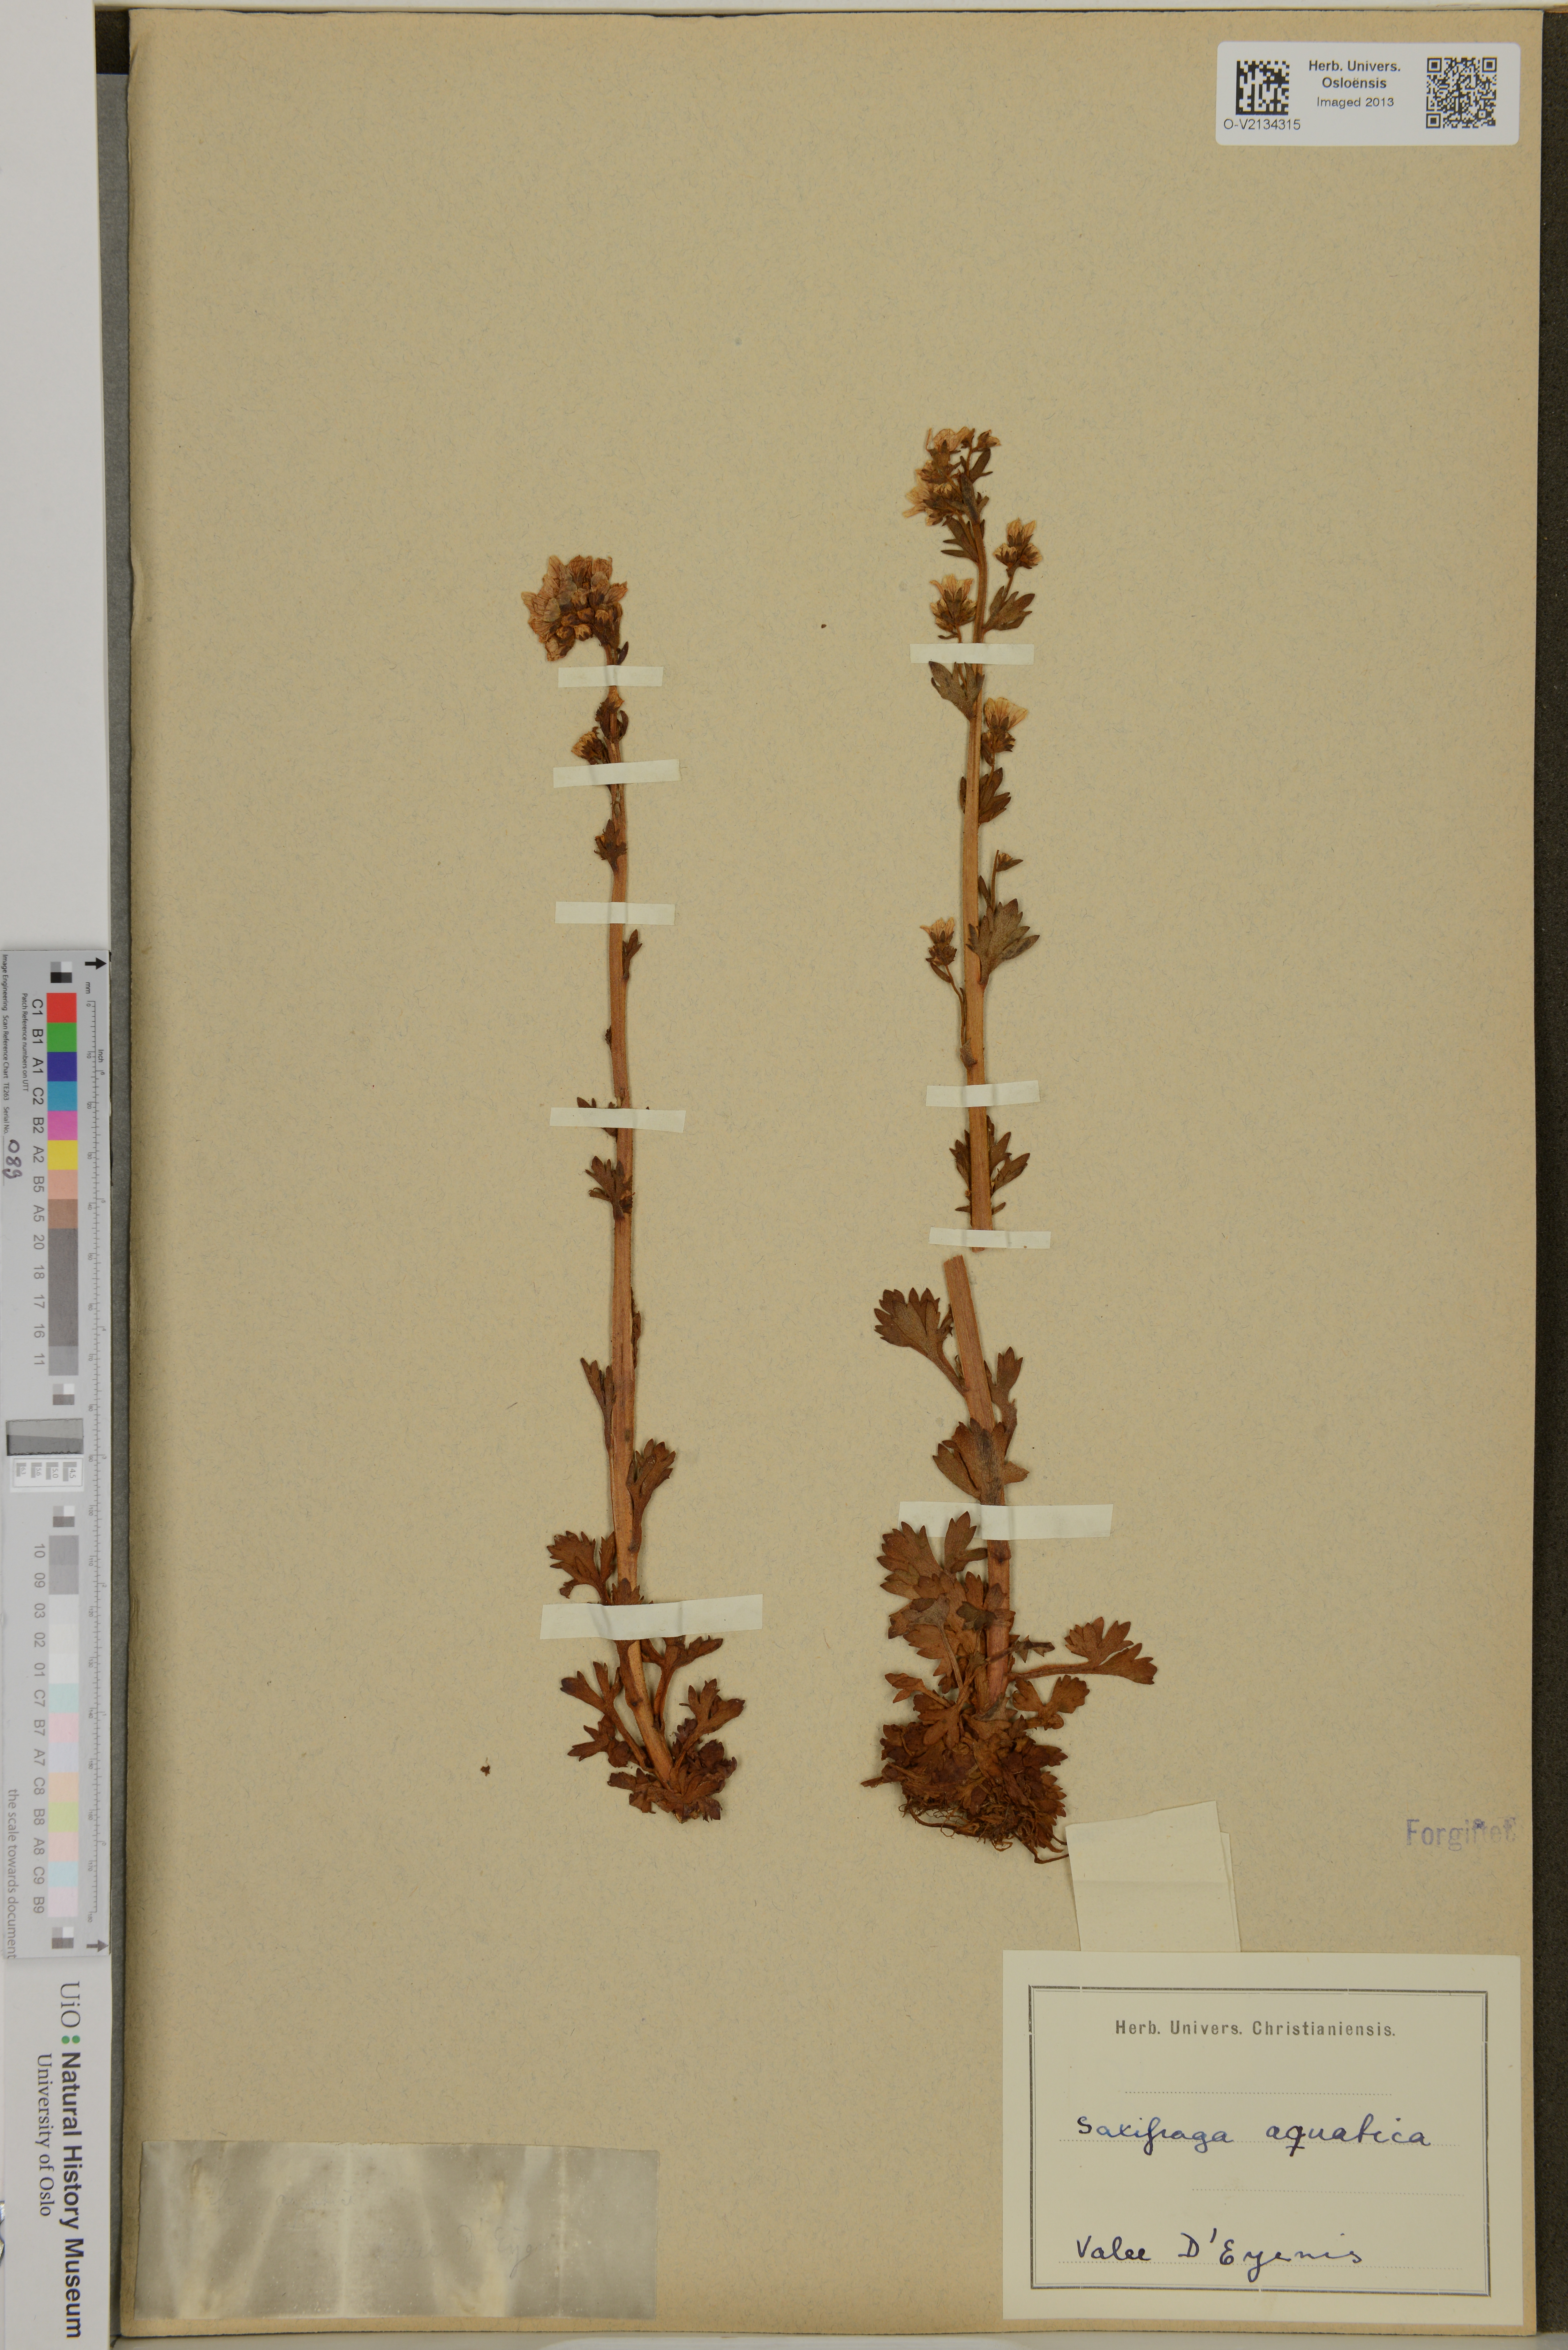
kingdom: Plantae
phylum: Tracheophyta
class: Magnoliopsida
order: Saxifragales
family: Saxifragaceae
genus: Saxifraga
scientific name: Saxifraga aquatica
